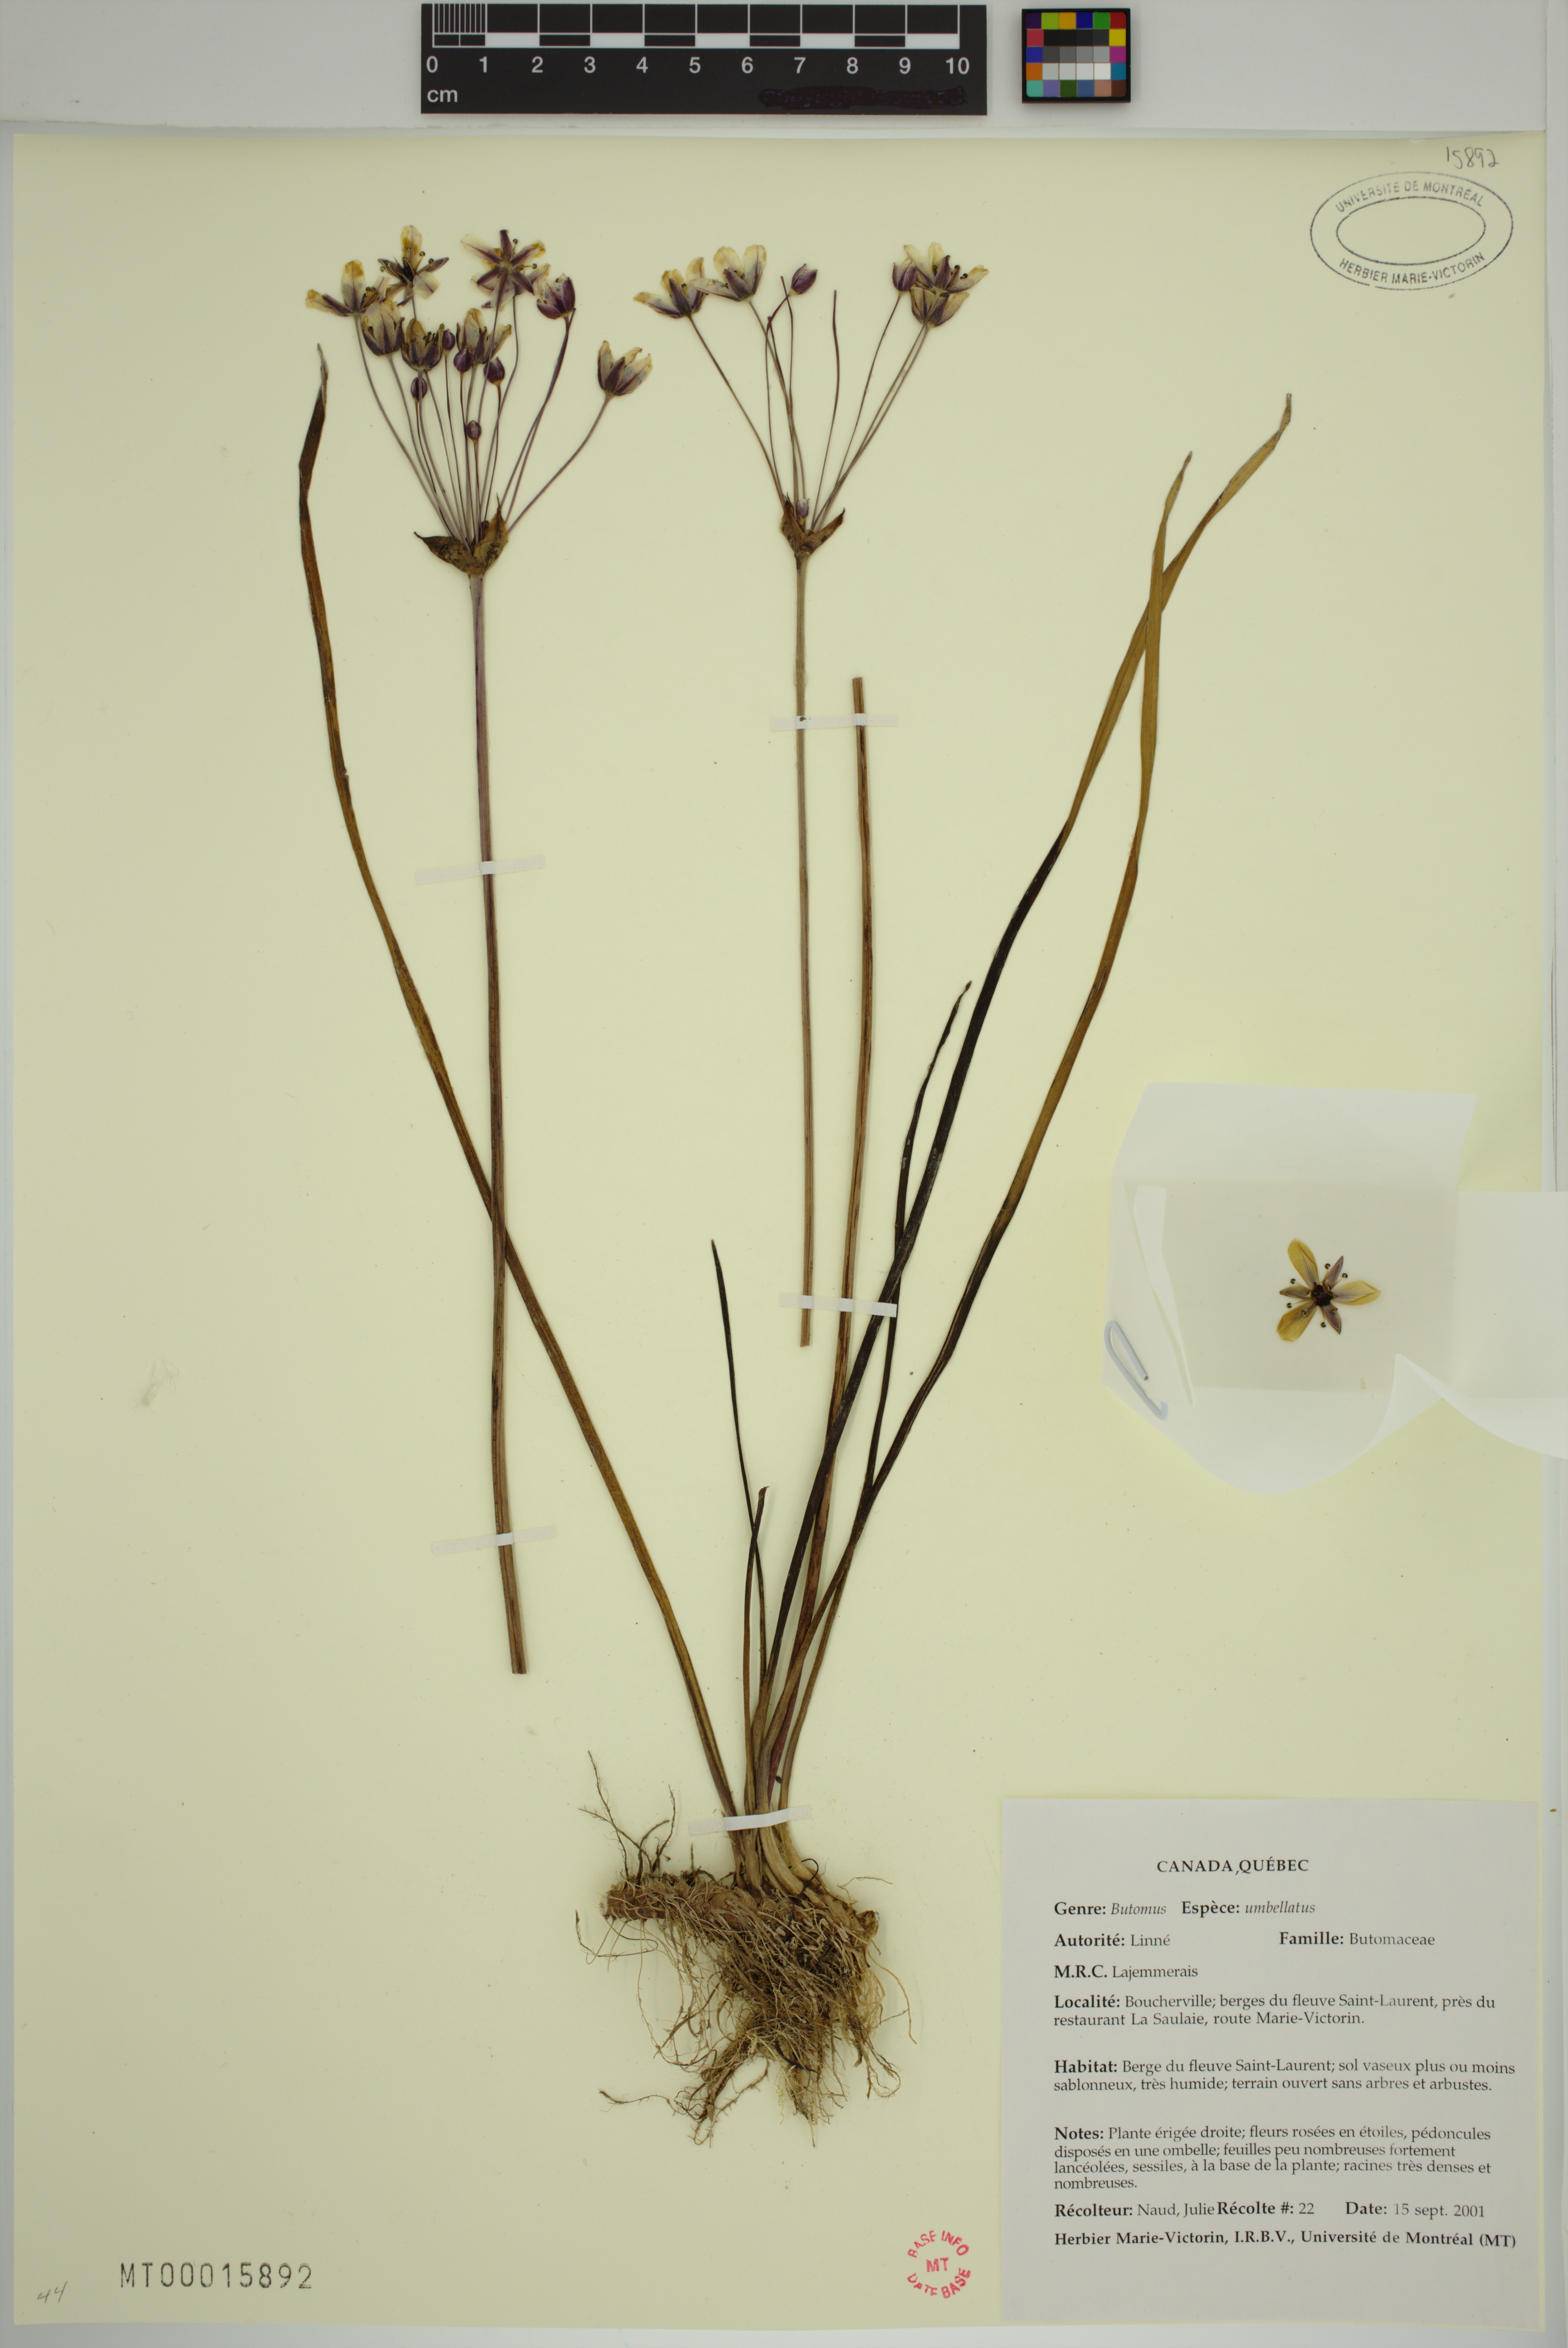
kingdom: Plantae
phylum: Tracheophyta
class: Liliopsida
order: Alismatales
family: Butomaceae
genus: Butomus
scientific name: Butomus umbellatus
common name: Flowering-rush
